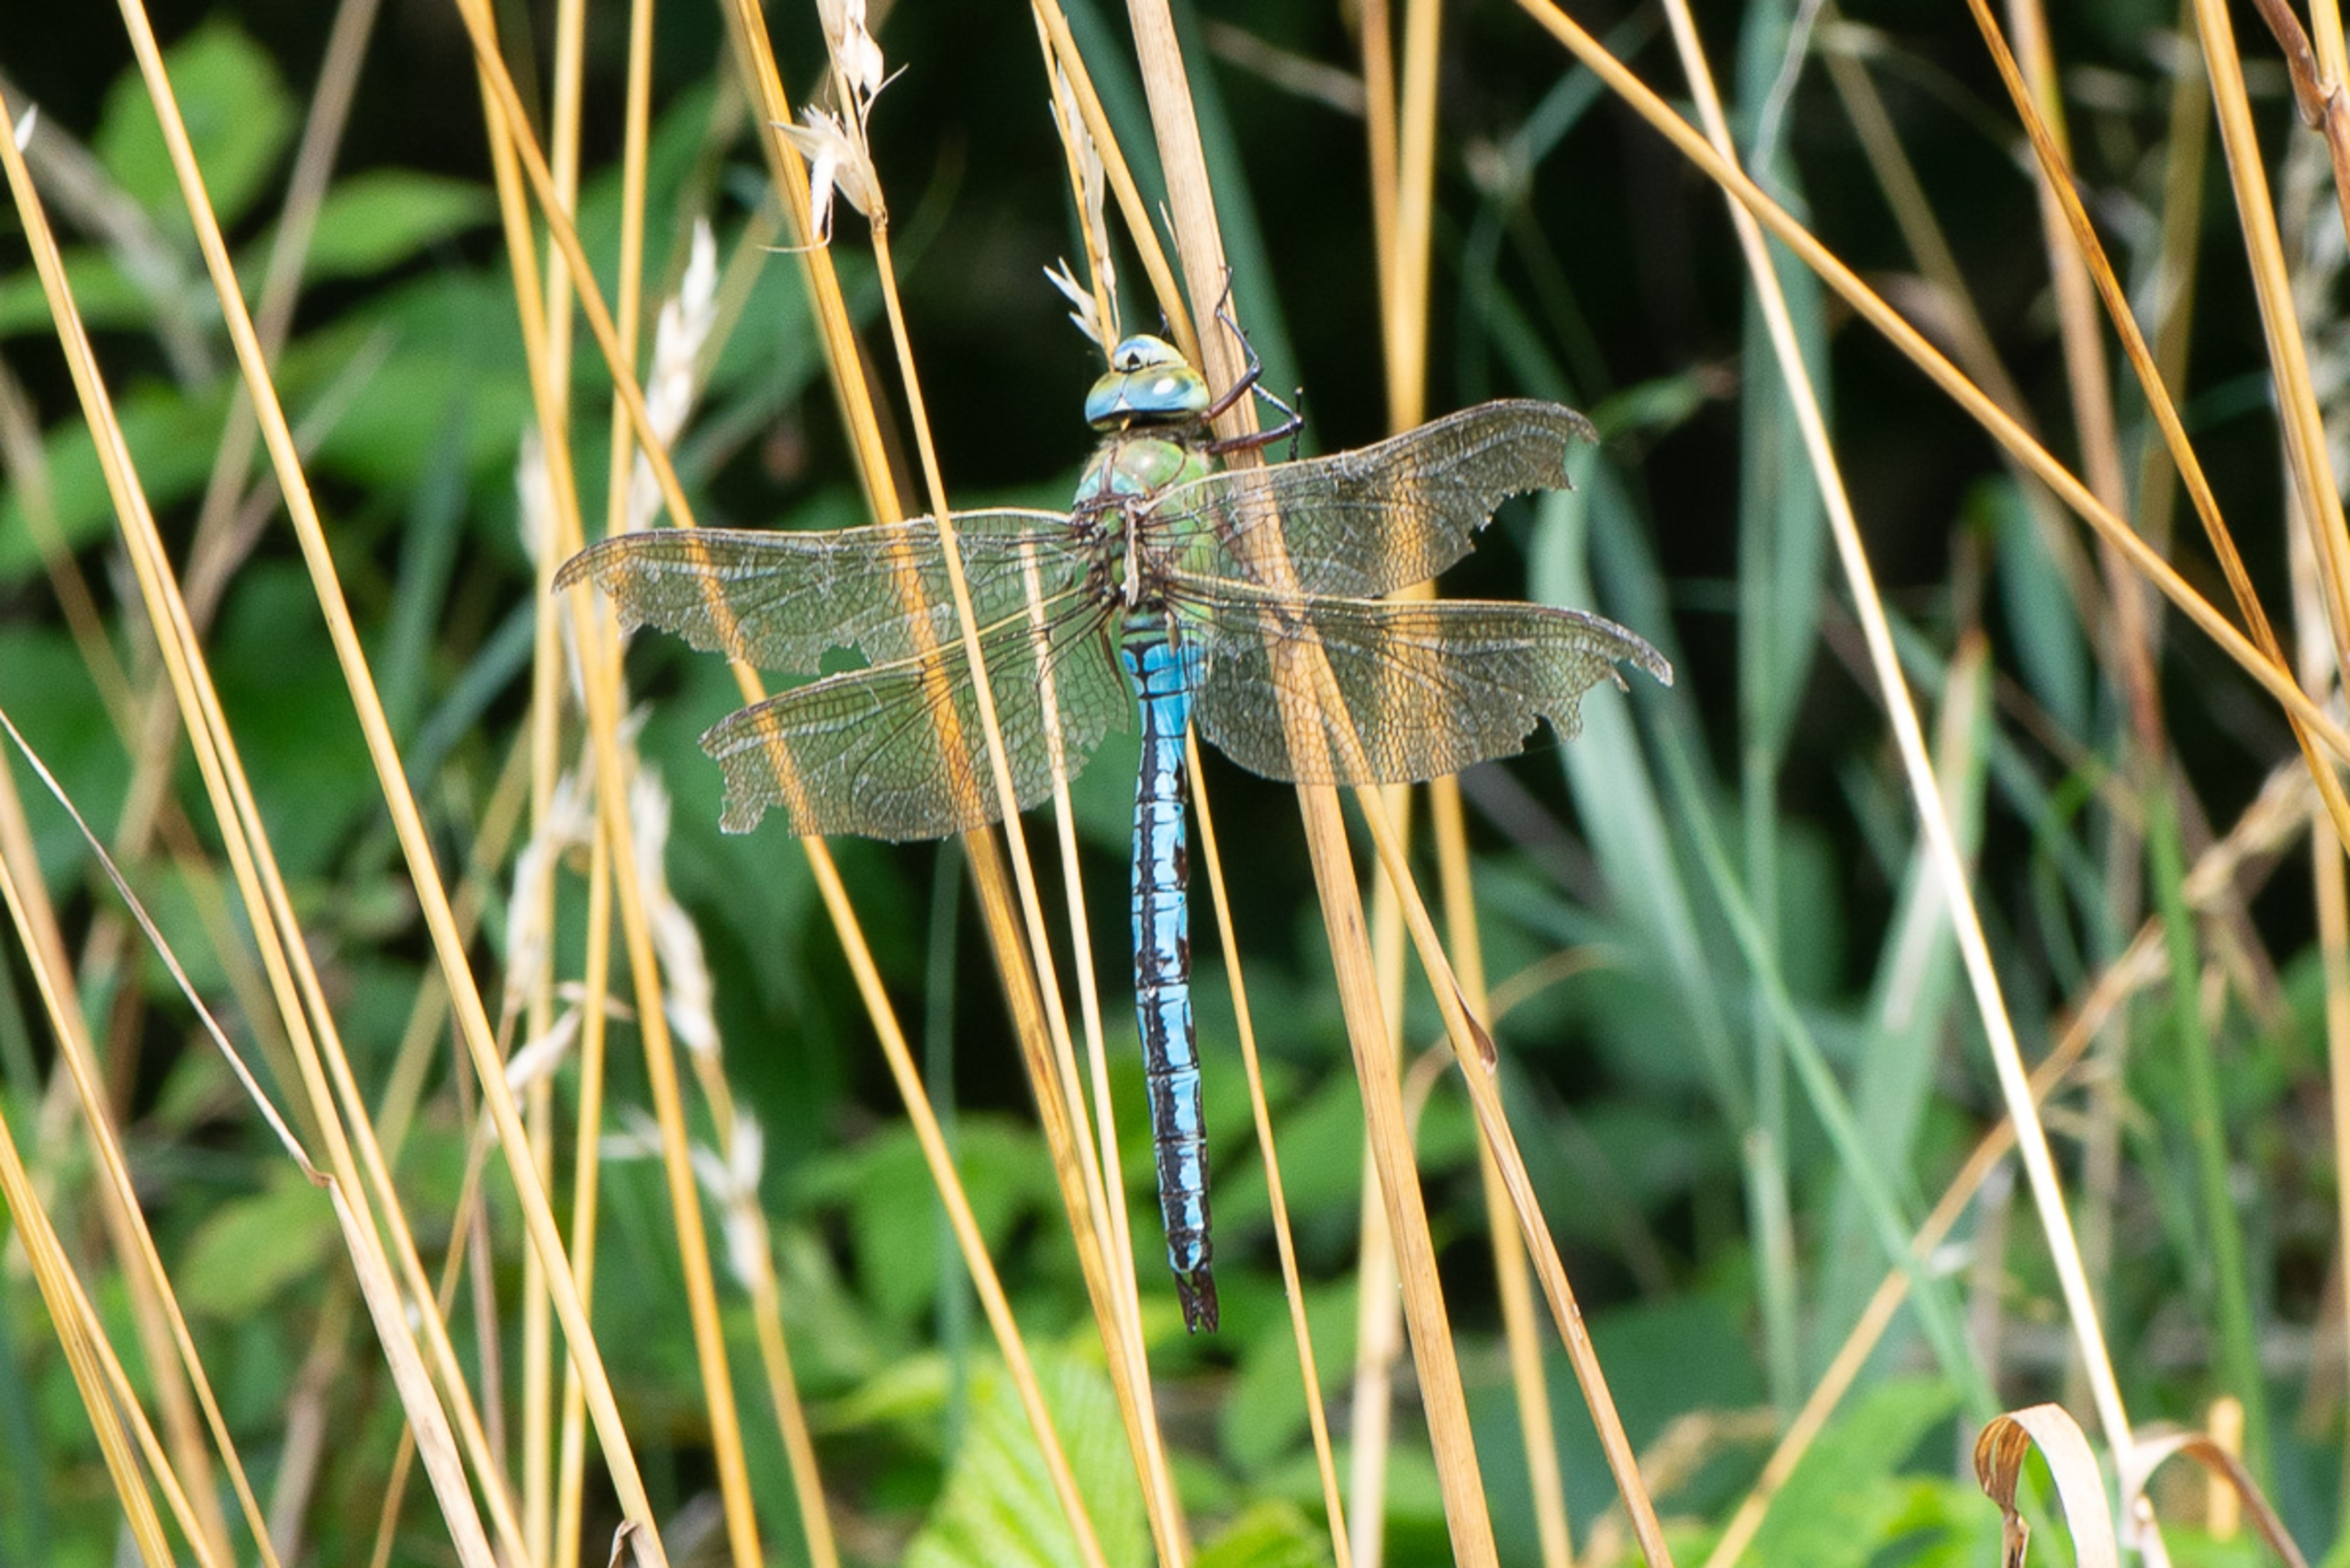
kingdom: Animalia
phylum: Arthropoda
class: Insecta
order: Odonata
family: Aeshnidae
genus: Anax
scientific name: Anax imperator
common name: Stor kejserguldsmed
